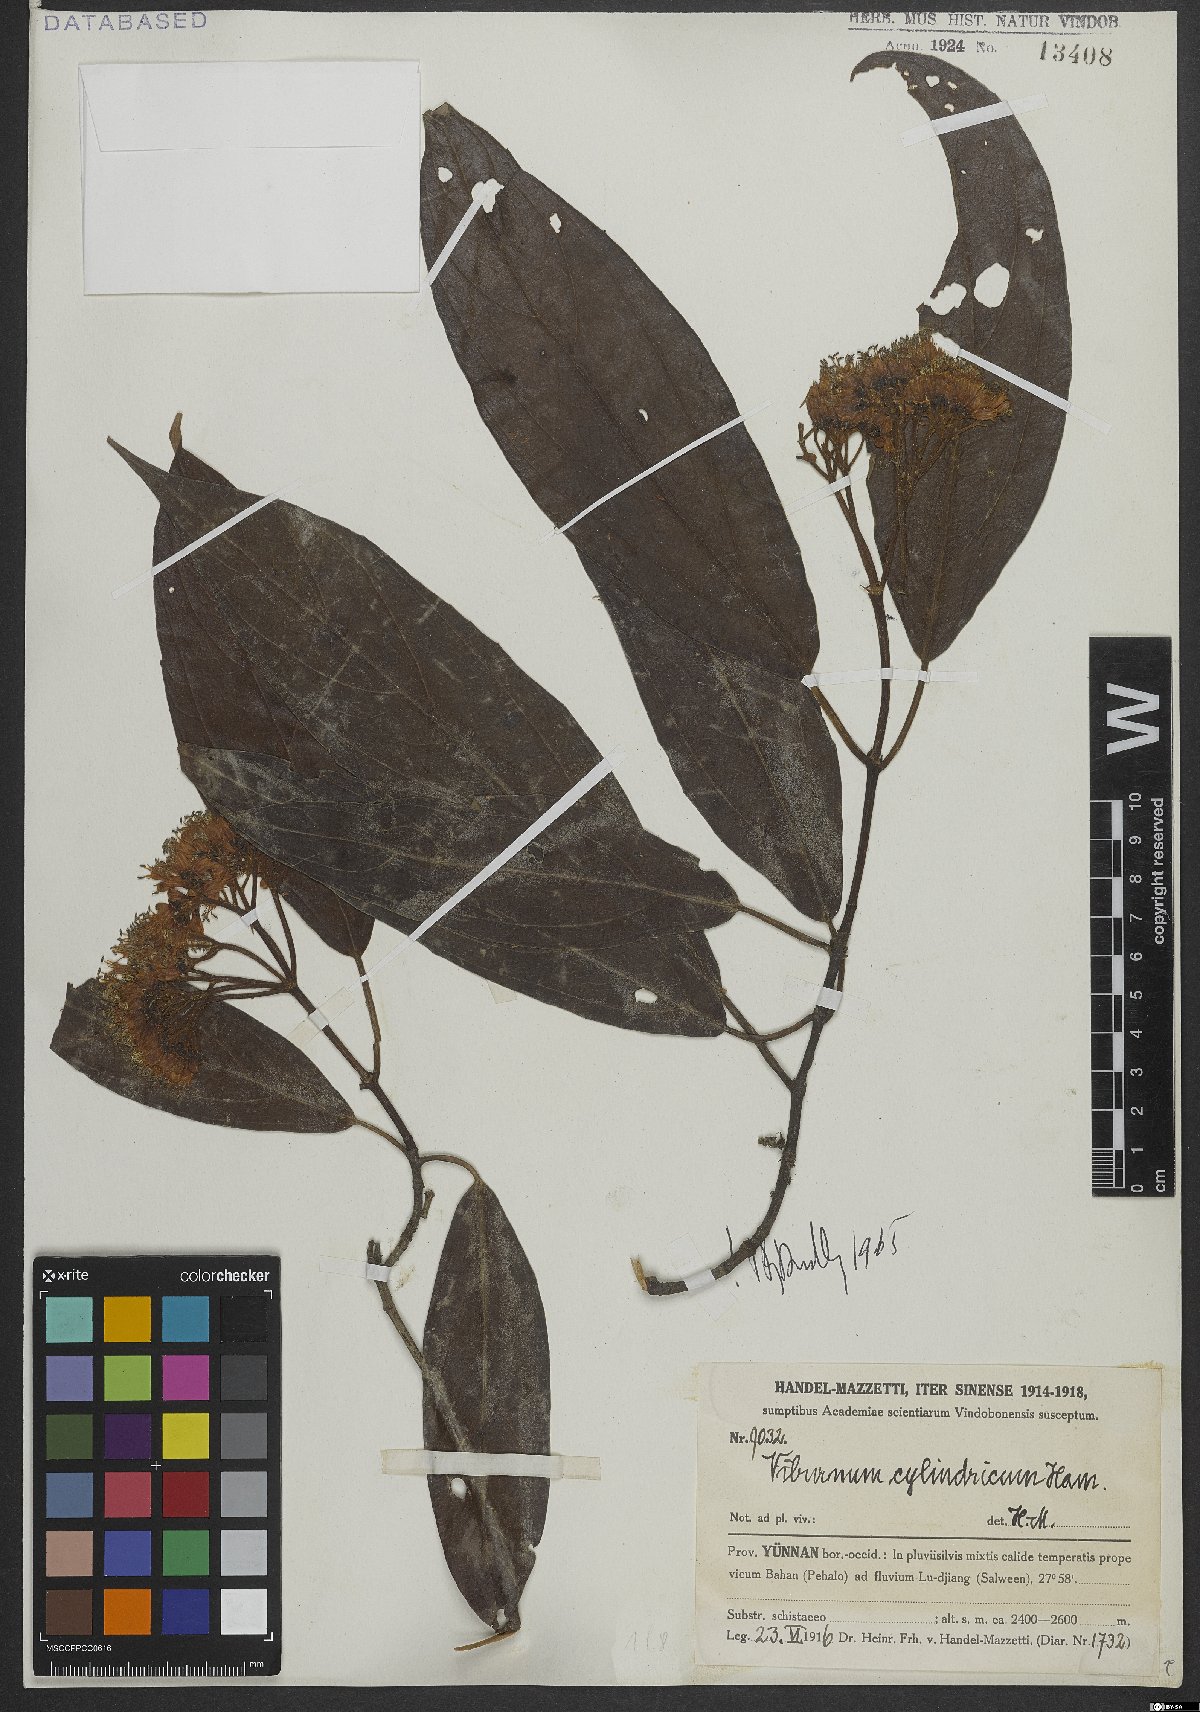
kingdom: Plantae
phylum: Tracheophyta
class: Magnoliopsida
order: Dipsacales
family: Viburnaceae
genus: Viburnum
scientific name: Viburnum cylindricum
